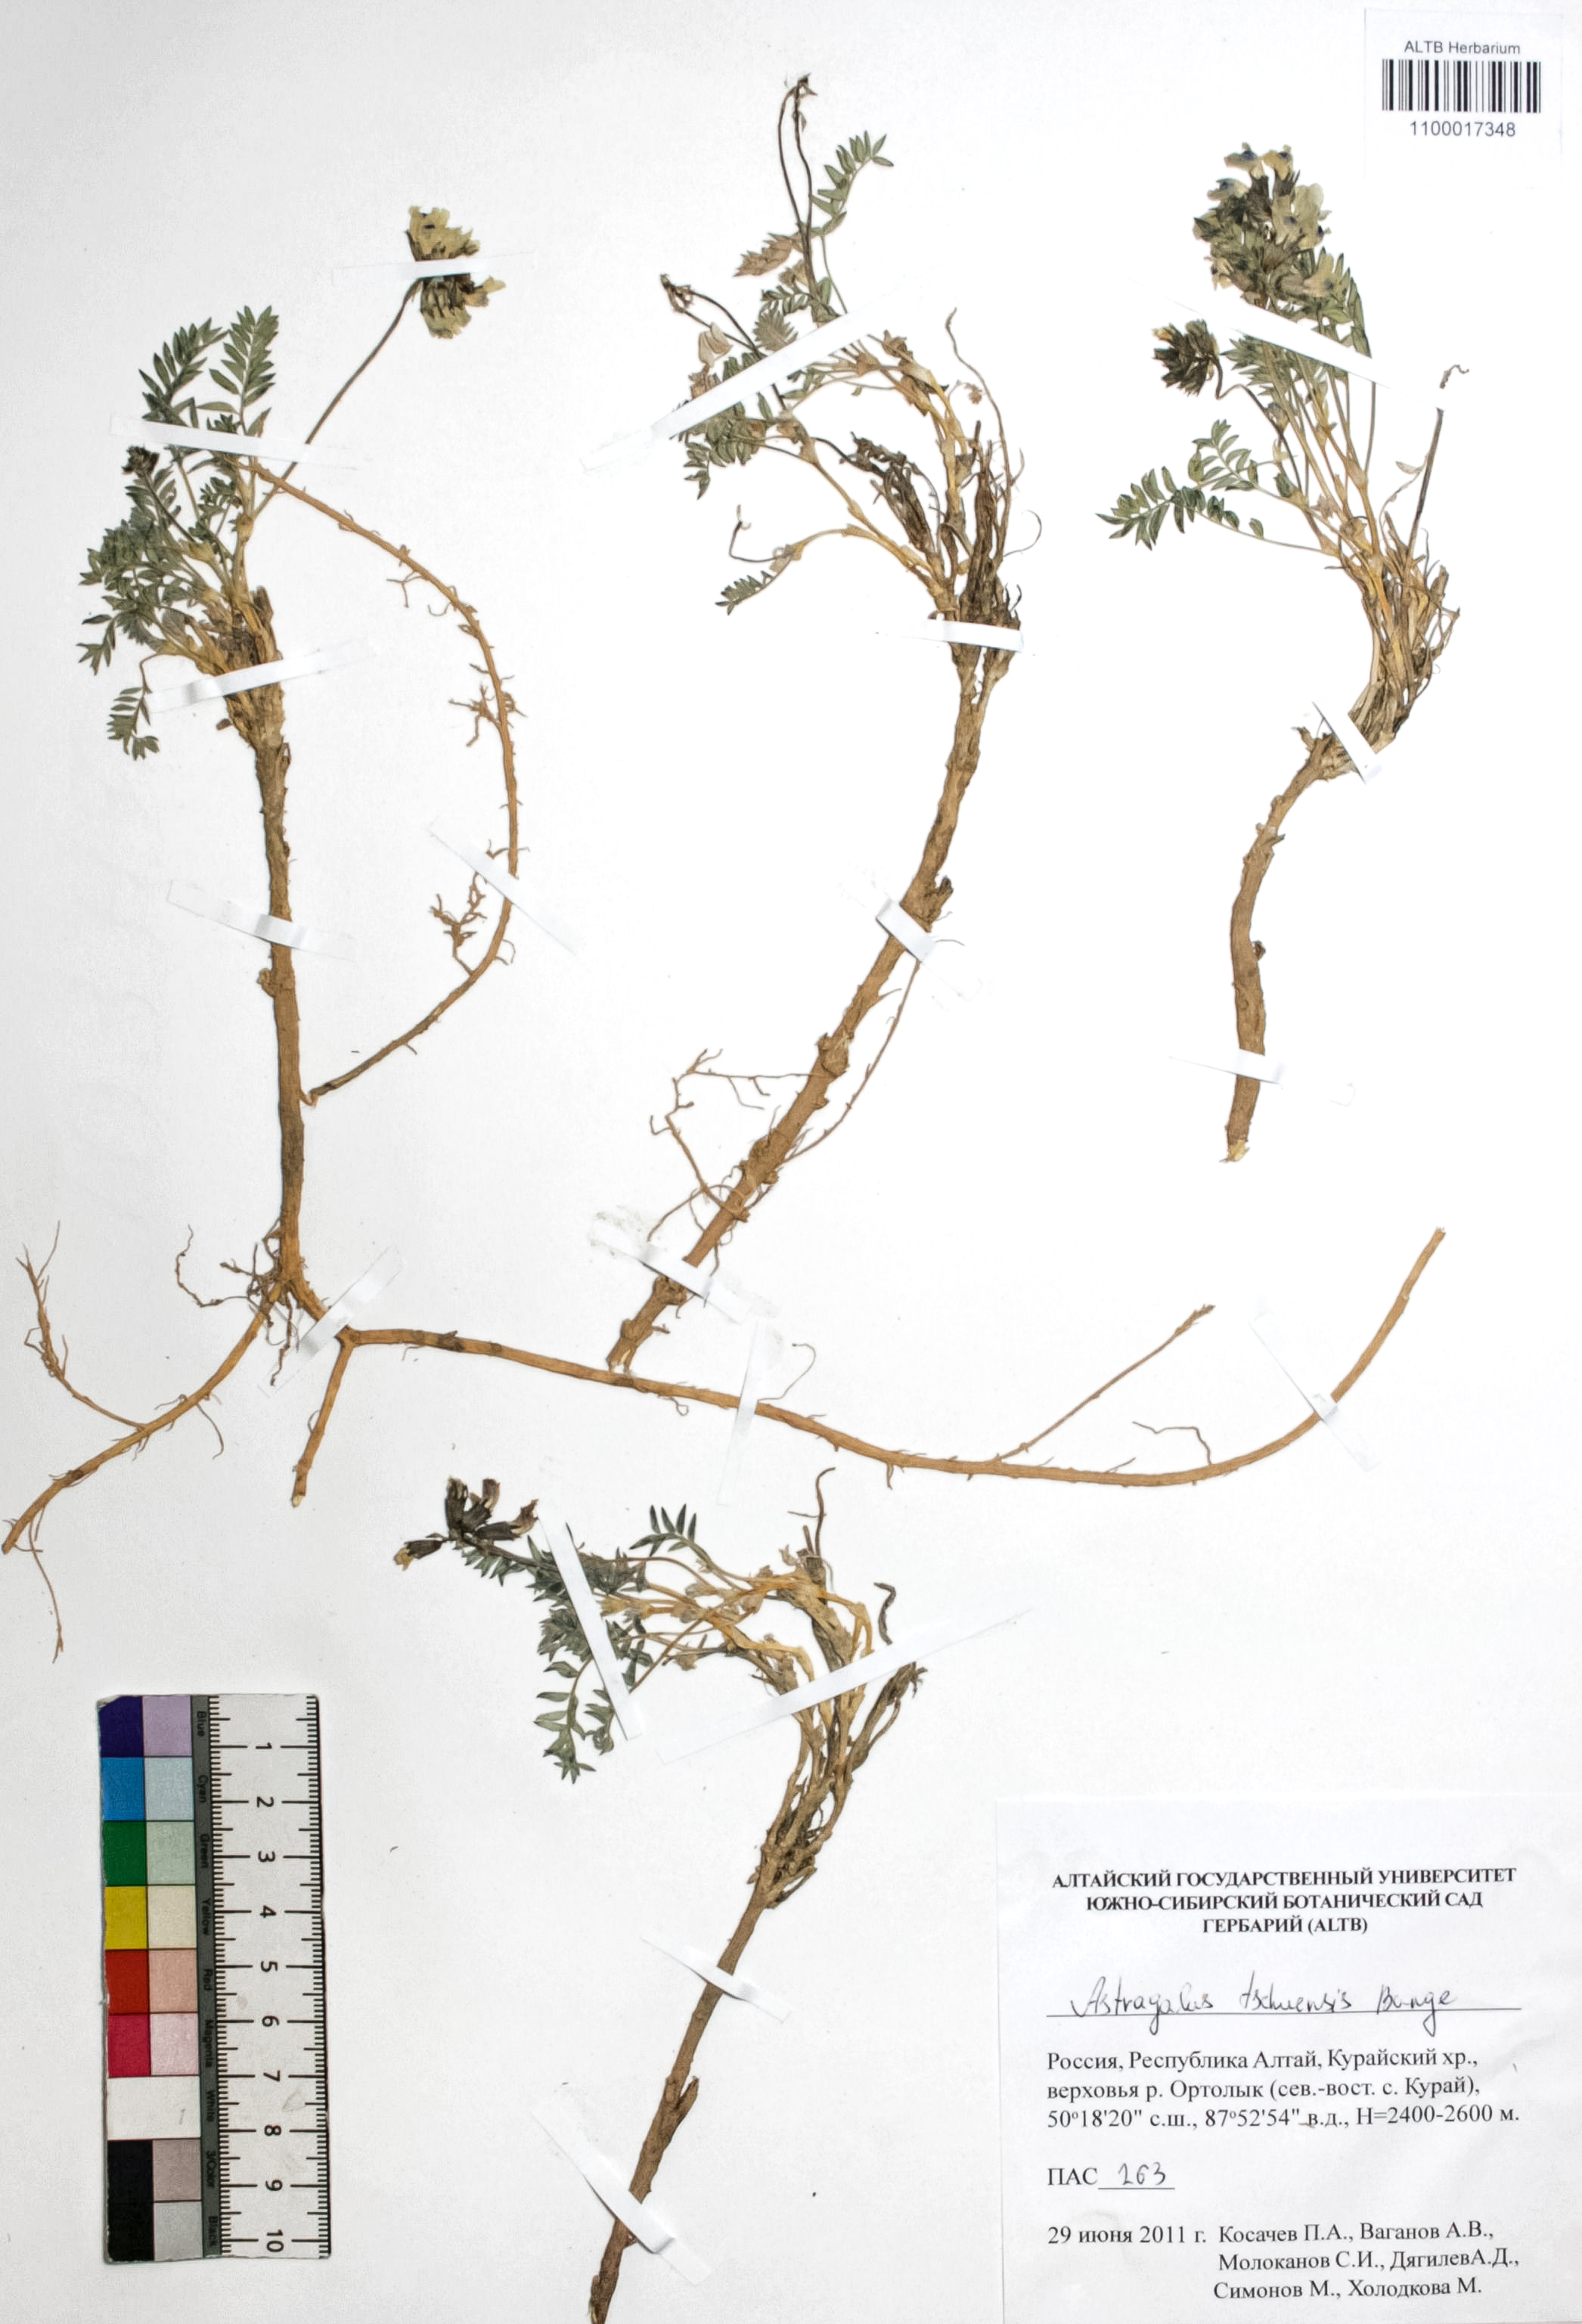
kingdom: Plantae
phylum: Tracheophyta
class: Magnoliopsida
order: Fabales
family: Fabaceae
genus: Astragalus
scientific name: Astragalus tschujensis
